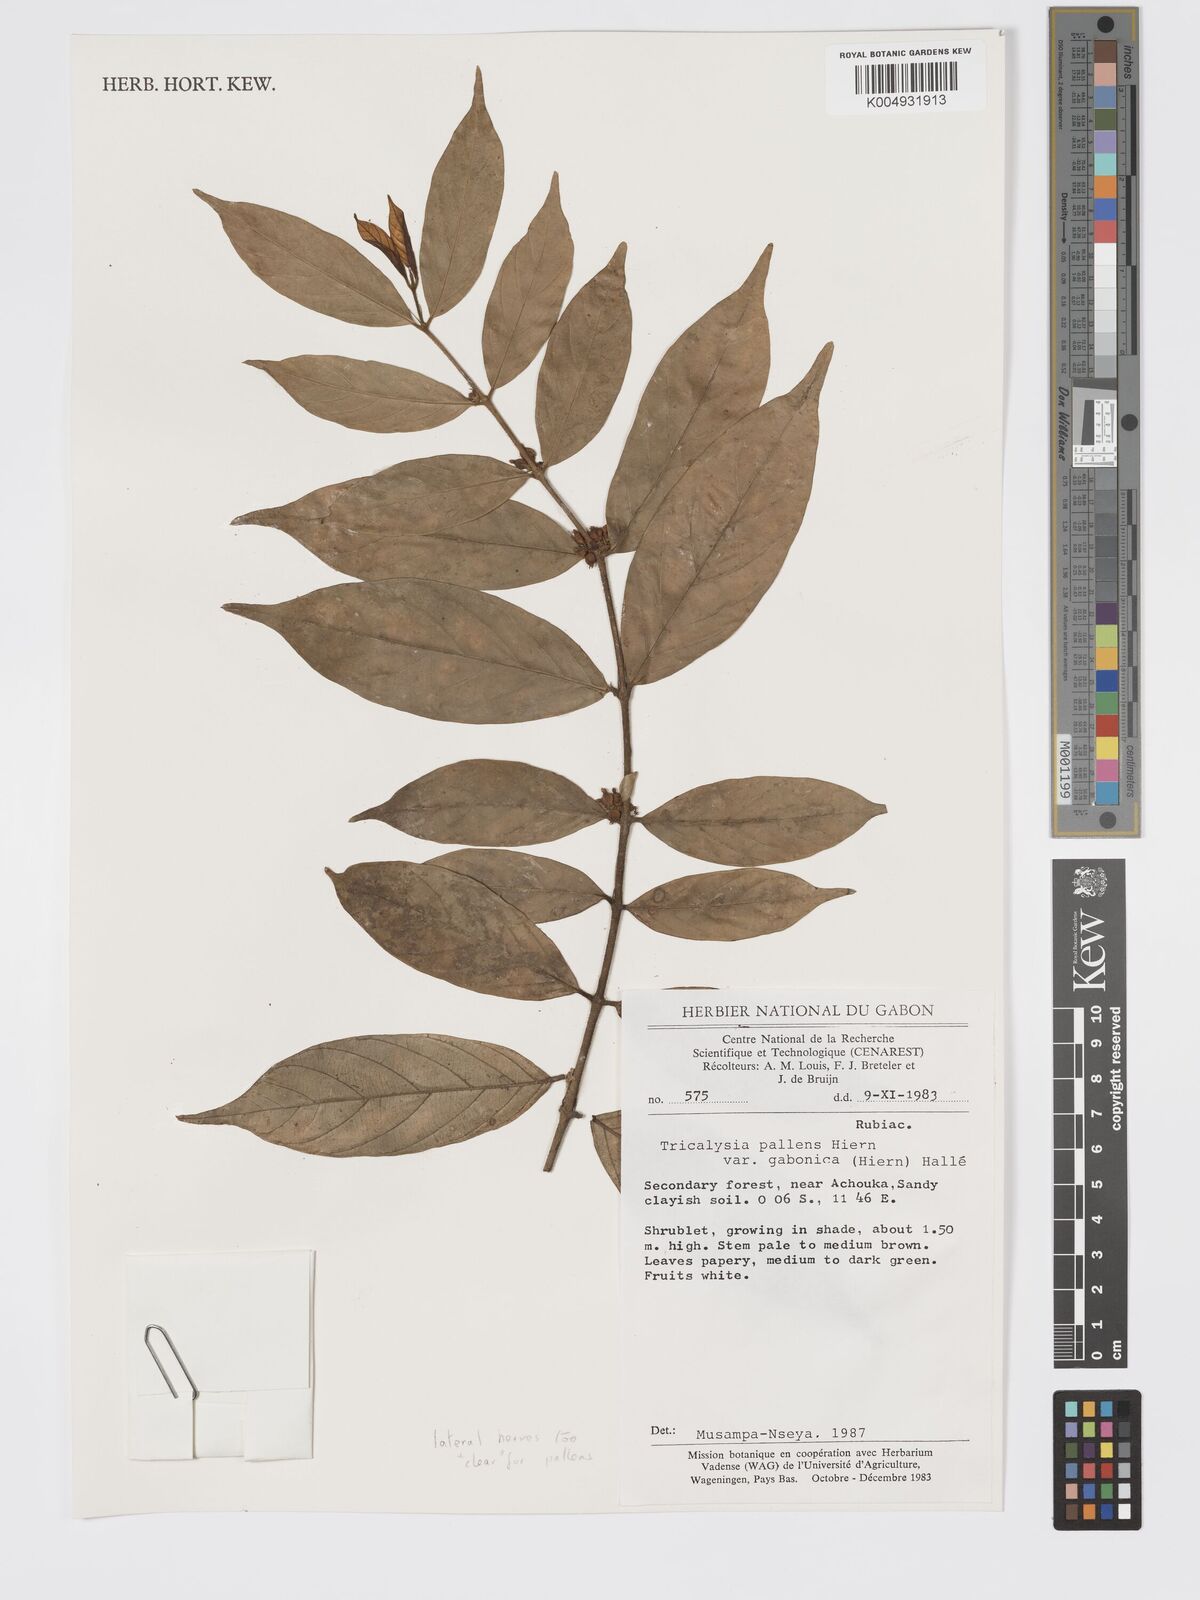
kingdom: Plantae
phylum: Tracheophyta
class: Magnoliopsida
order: Gentianales
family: Rubiaceae
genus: Tricalysia
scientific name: Tricalysia
